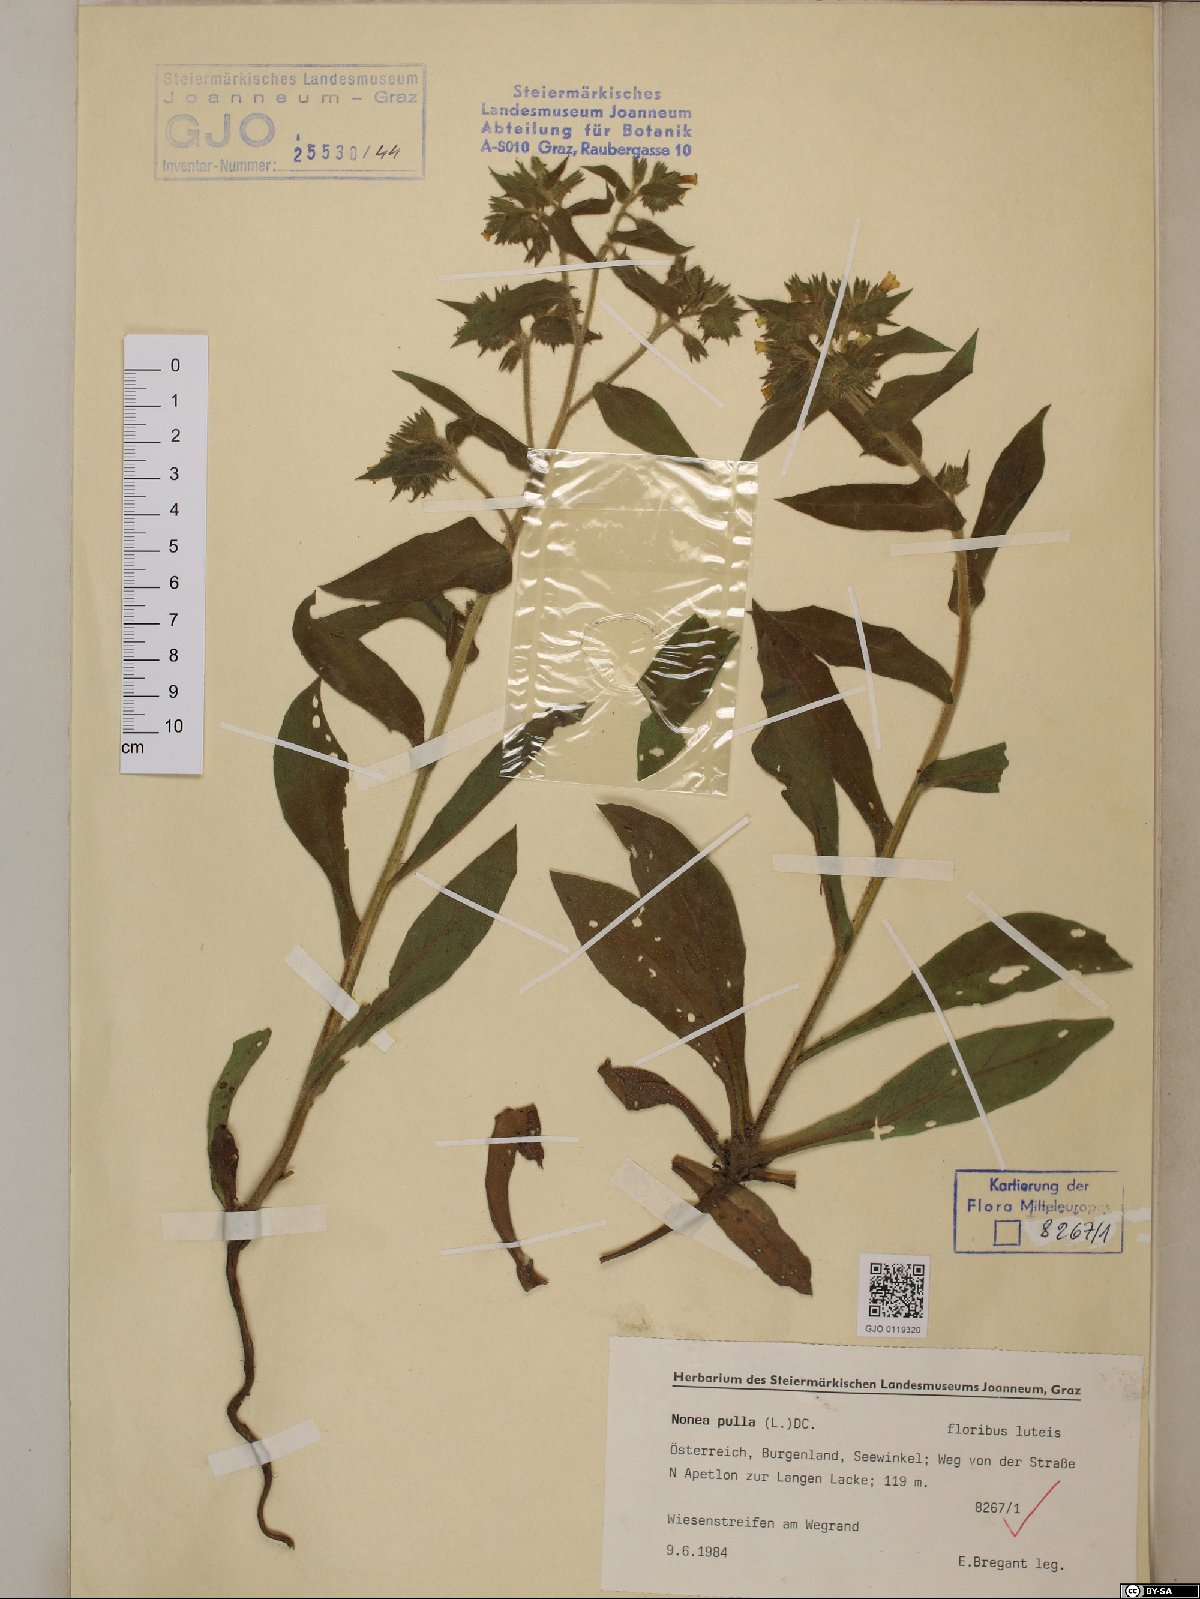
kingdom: Plantae
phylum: Tracheophyta
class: Magnoliopsida
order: Boraginales
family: Boraginaceae
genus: Nonea
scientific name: Nonea pulla
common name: Brown nonea
